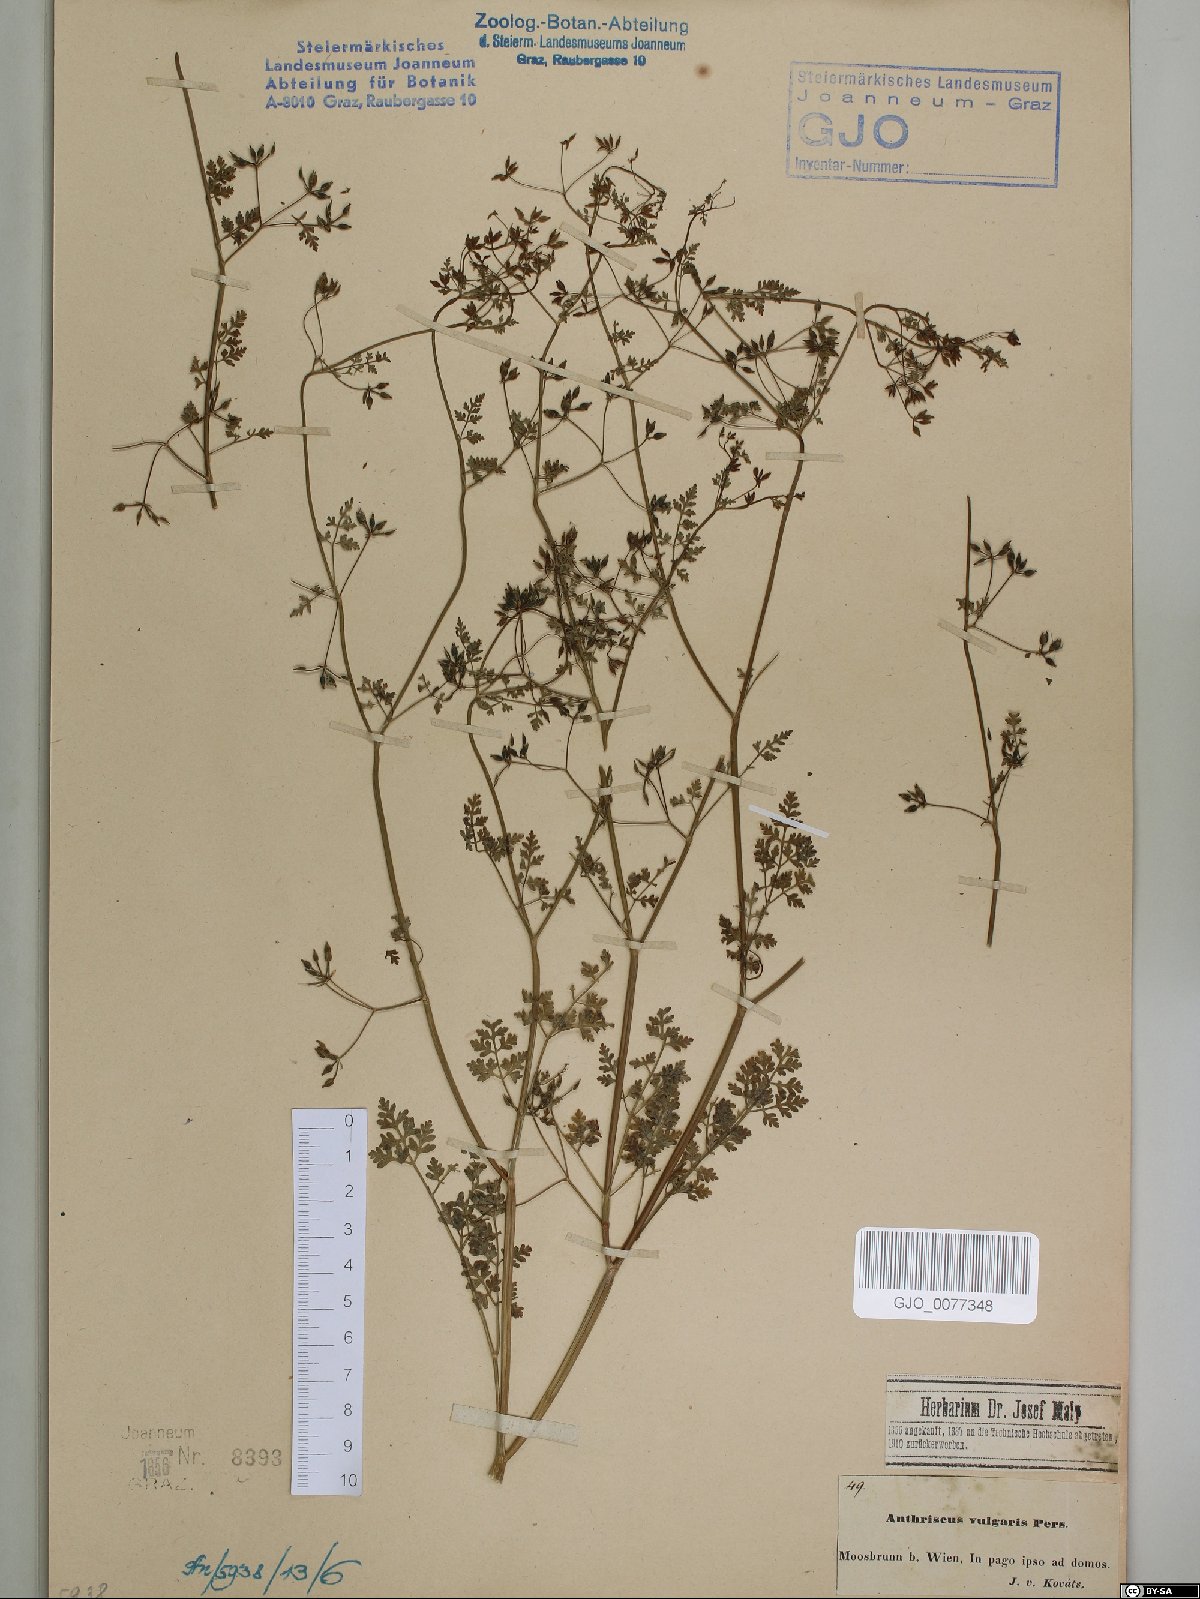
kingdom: Plantae
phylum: Tracheophyta
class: Magnoliopsida
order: Apiales
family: Apiaceae
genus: Anthriscus
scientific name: Anthriscus caucalis
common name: Bur chervil
